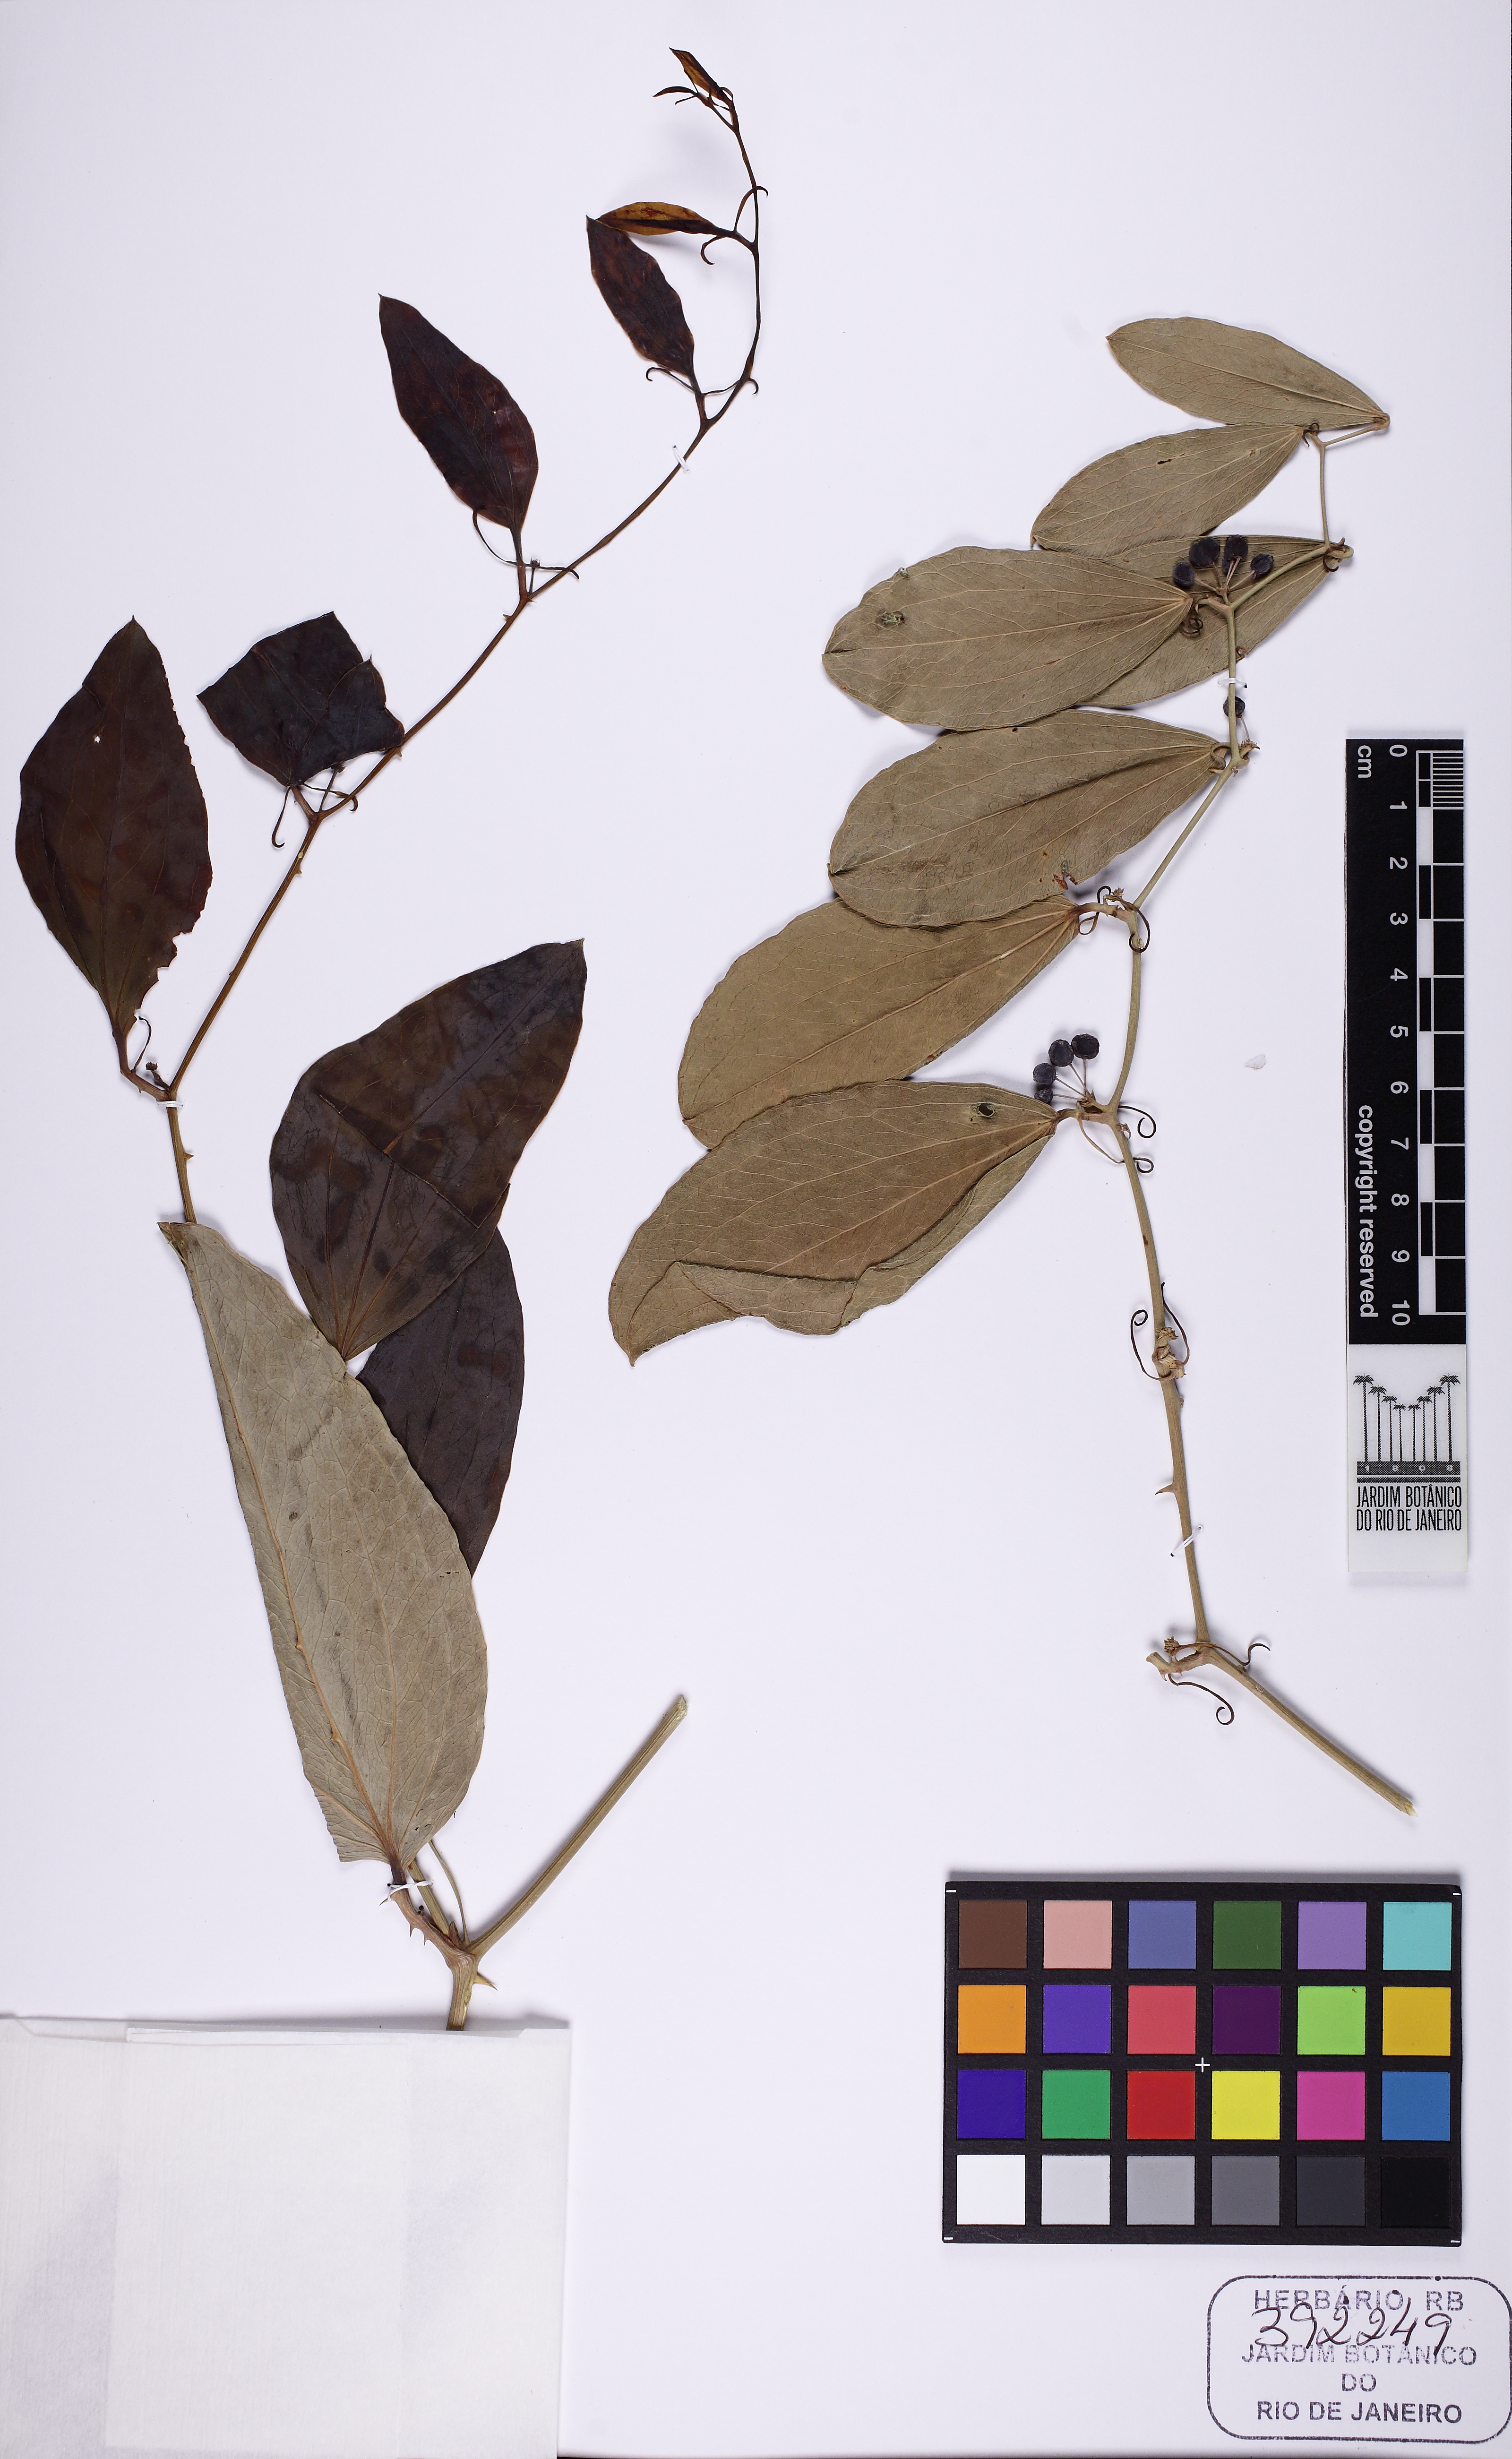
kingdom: Plantae
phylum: Tracheophyta
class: Liliopsida
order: Liliales
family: Smilacaceae
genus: Smilax
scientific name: Smilax goyazana
